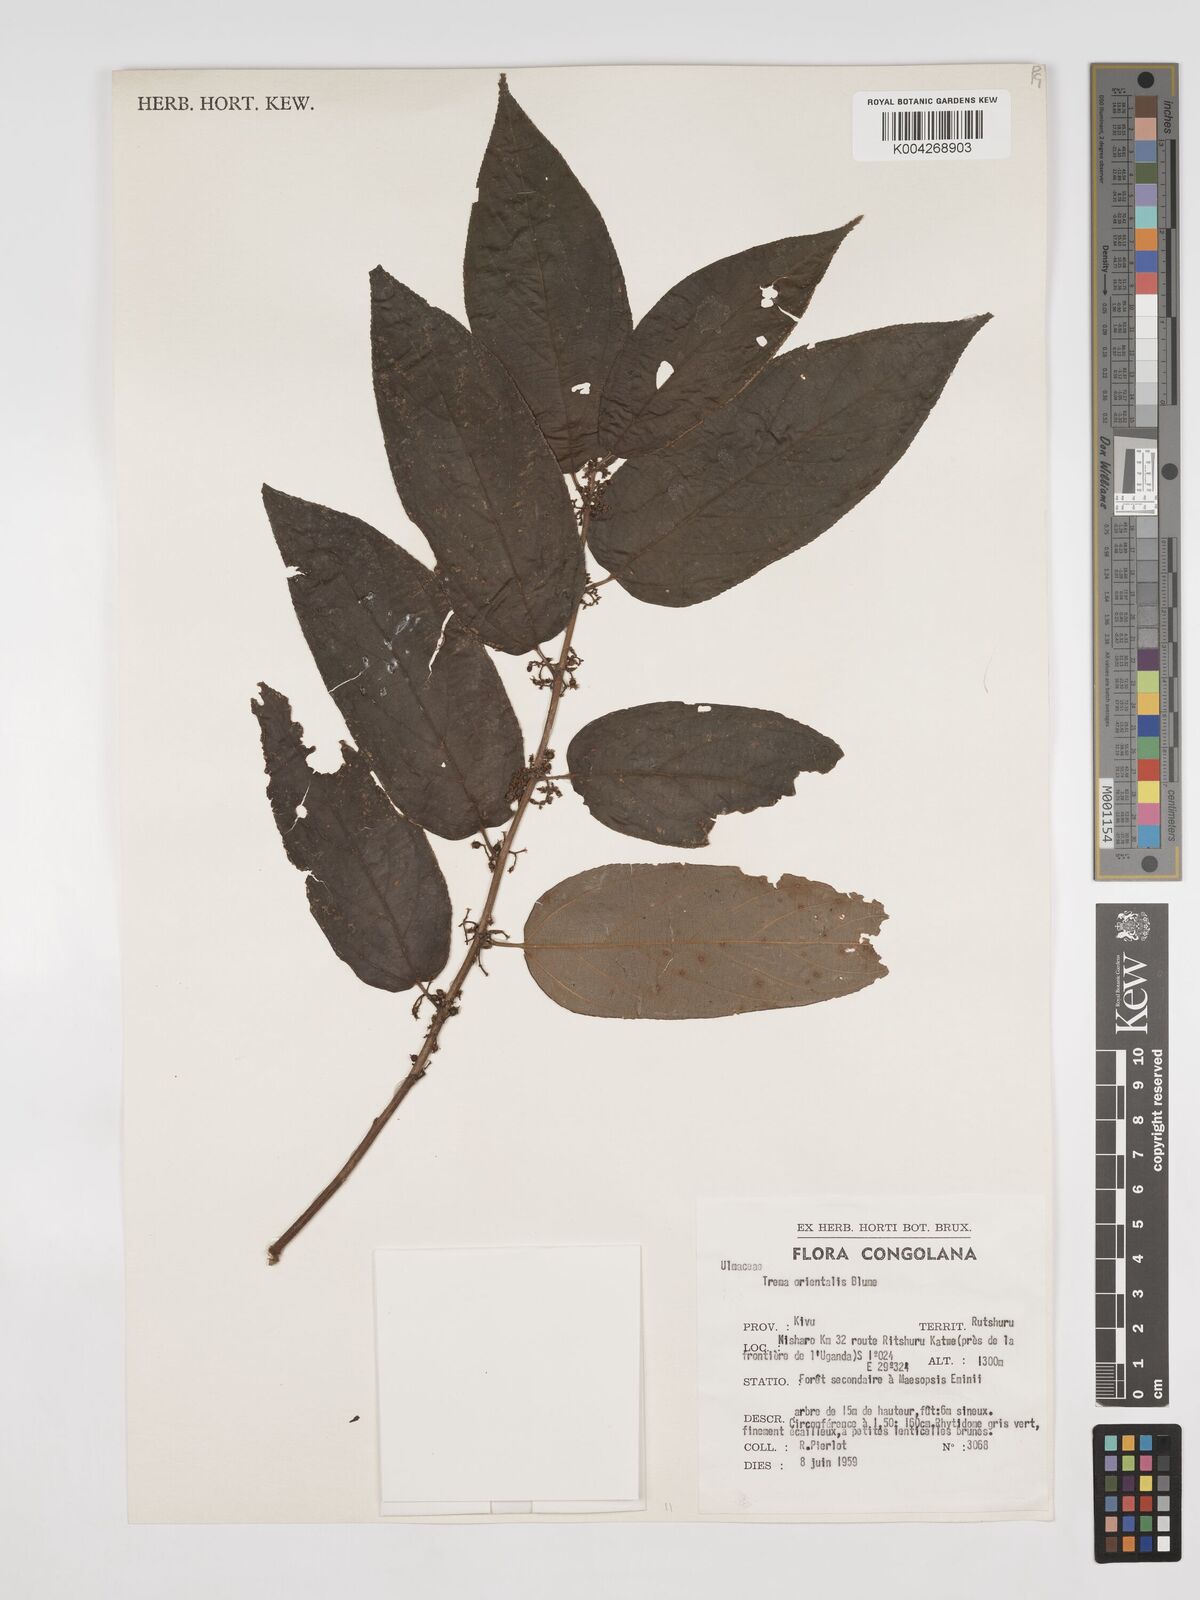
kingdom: Plantae
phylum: Tracheophyta
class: Magnoliopsida
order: Rosales
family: Cannabaceae
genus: Trema
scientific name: Trema orientale
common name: Indian charcoal tree
